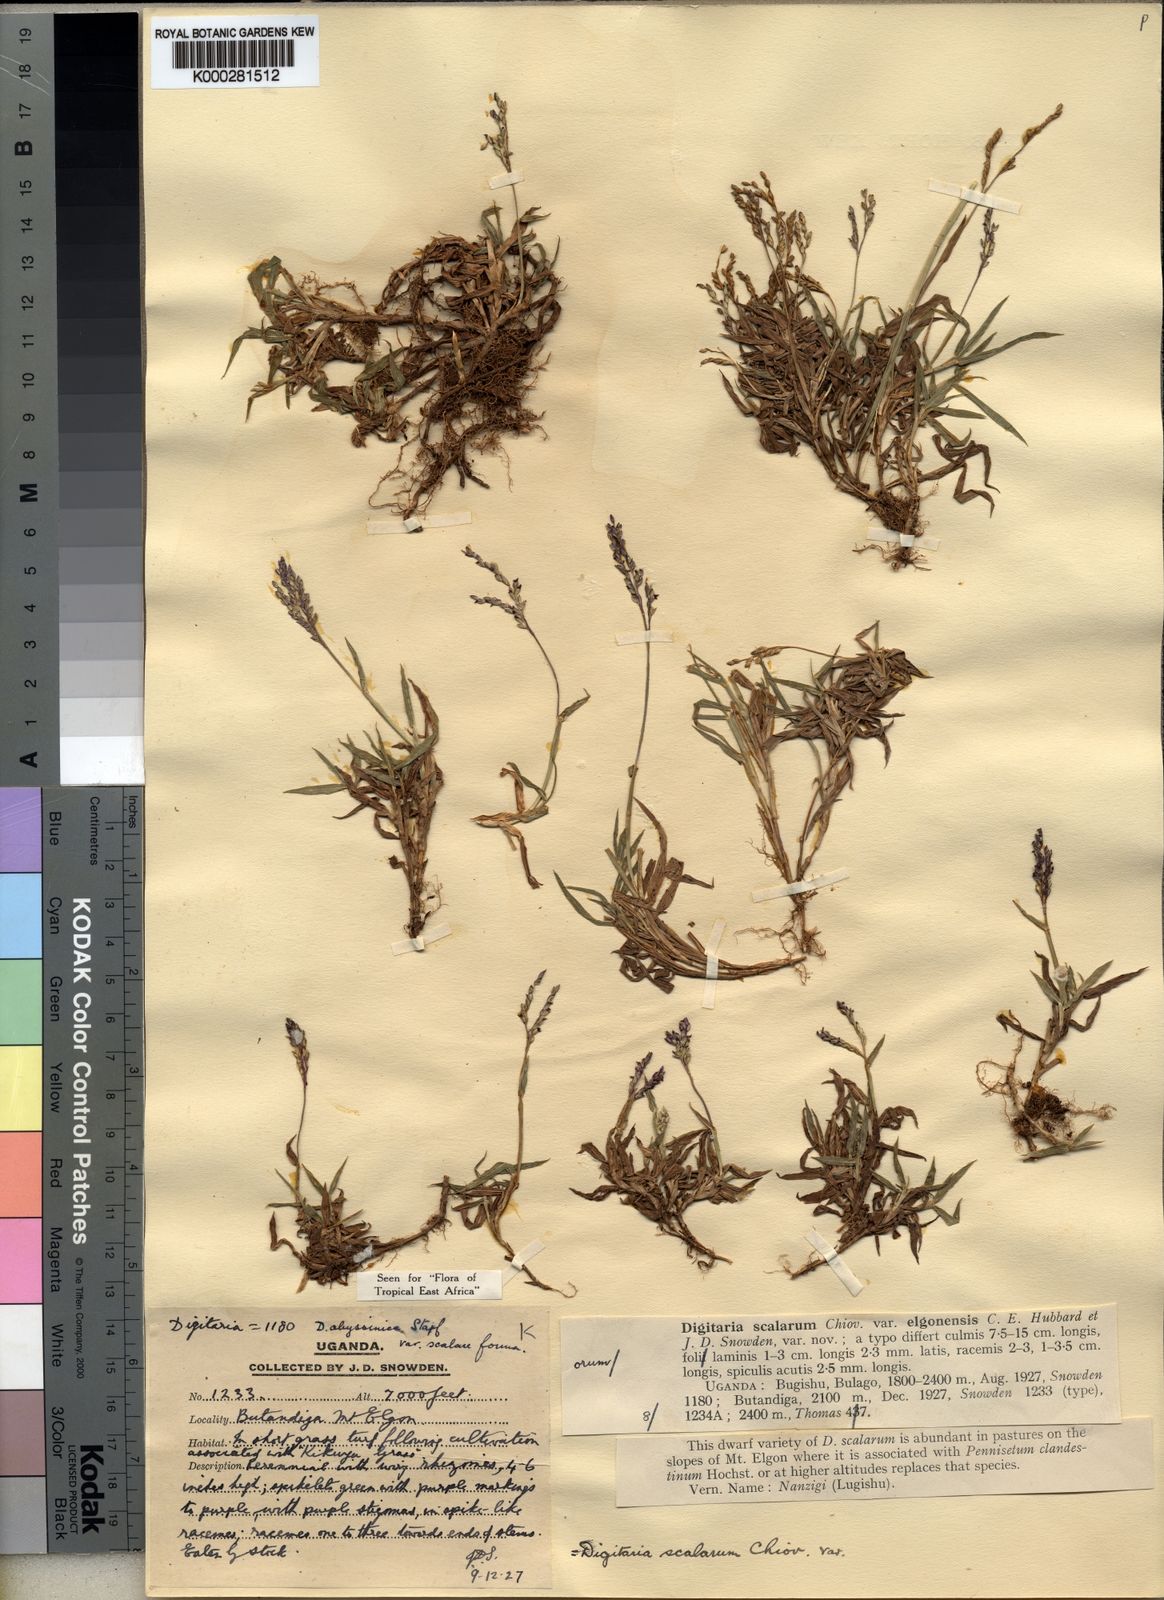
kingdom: Plantae
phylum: Tracheophyta
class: Liliopsida
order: Poales
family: Poaceae
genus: Digitaria
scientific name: Digitaria abyssinica
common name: African couchgrass
